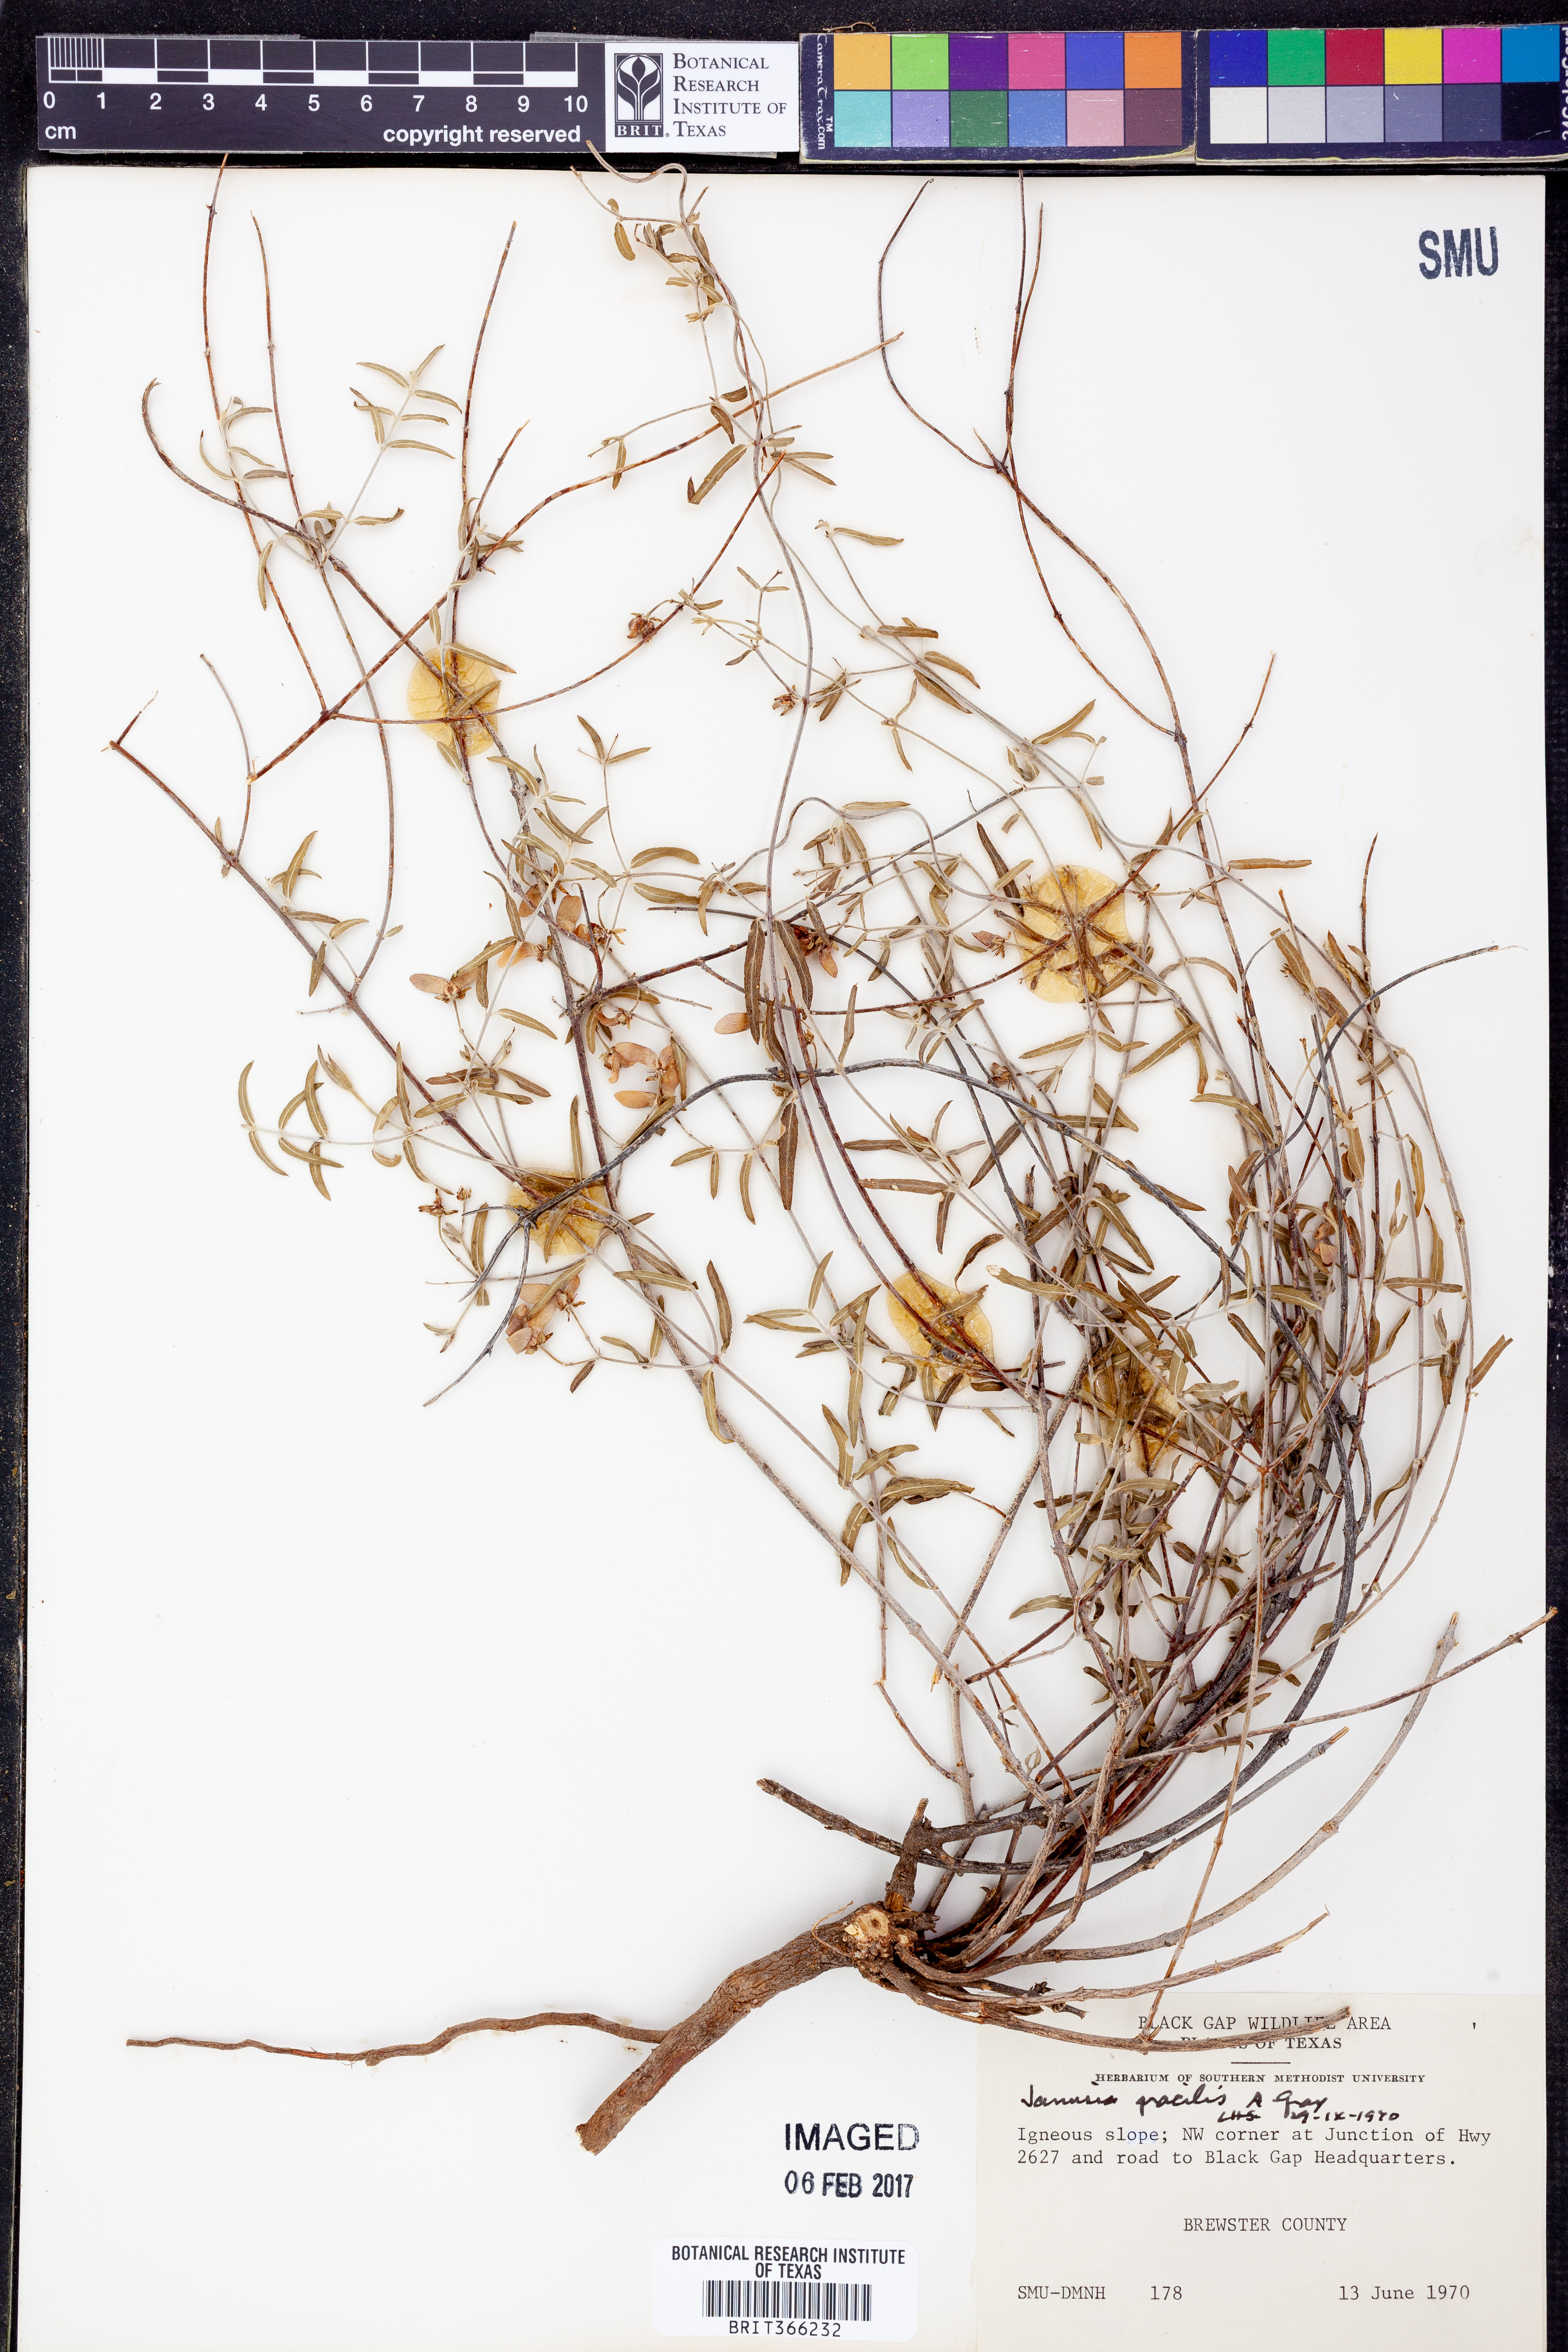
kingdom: Plantae
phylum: Tracheophyta
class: Magnoliopsida
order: Malpighiales
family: Malpighiaceae
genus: Cottsia
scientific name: Cottsia gracilis
